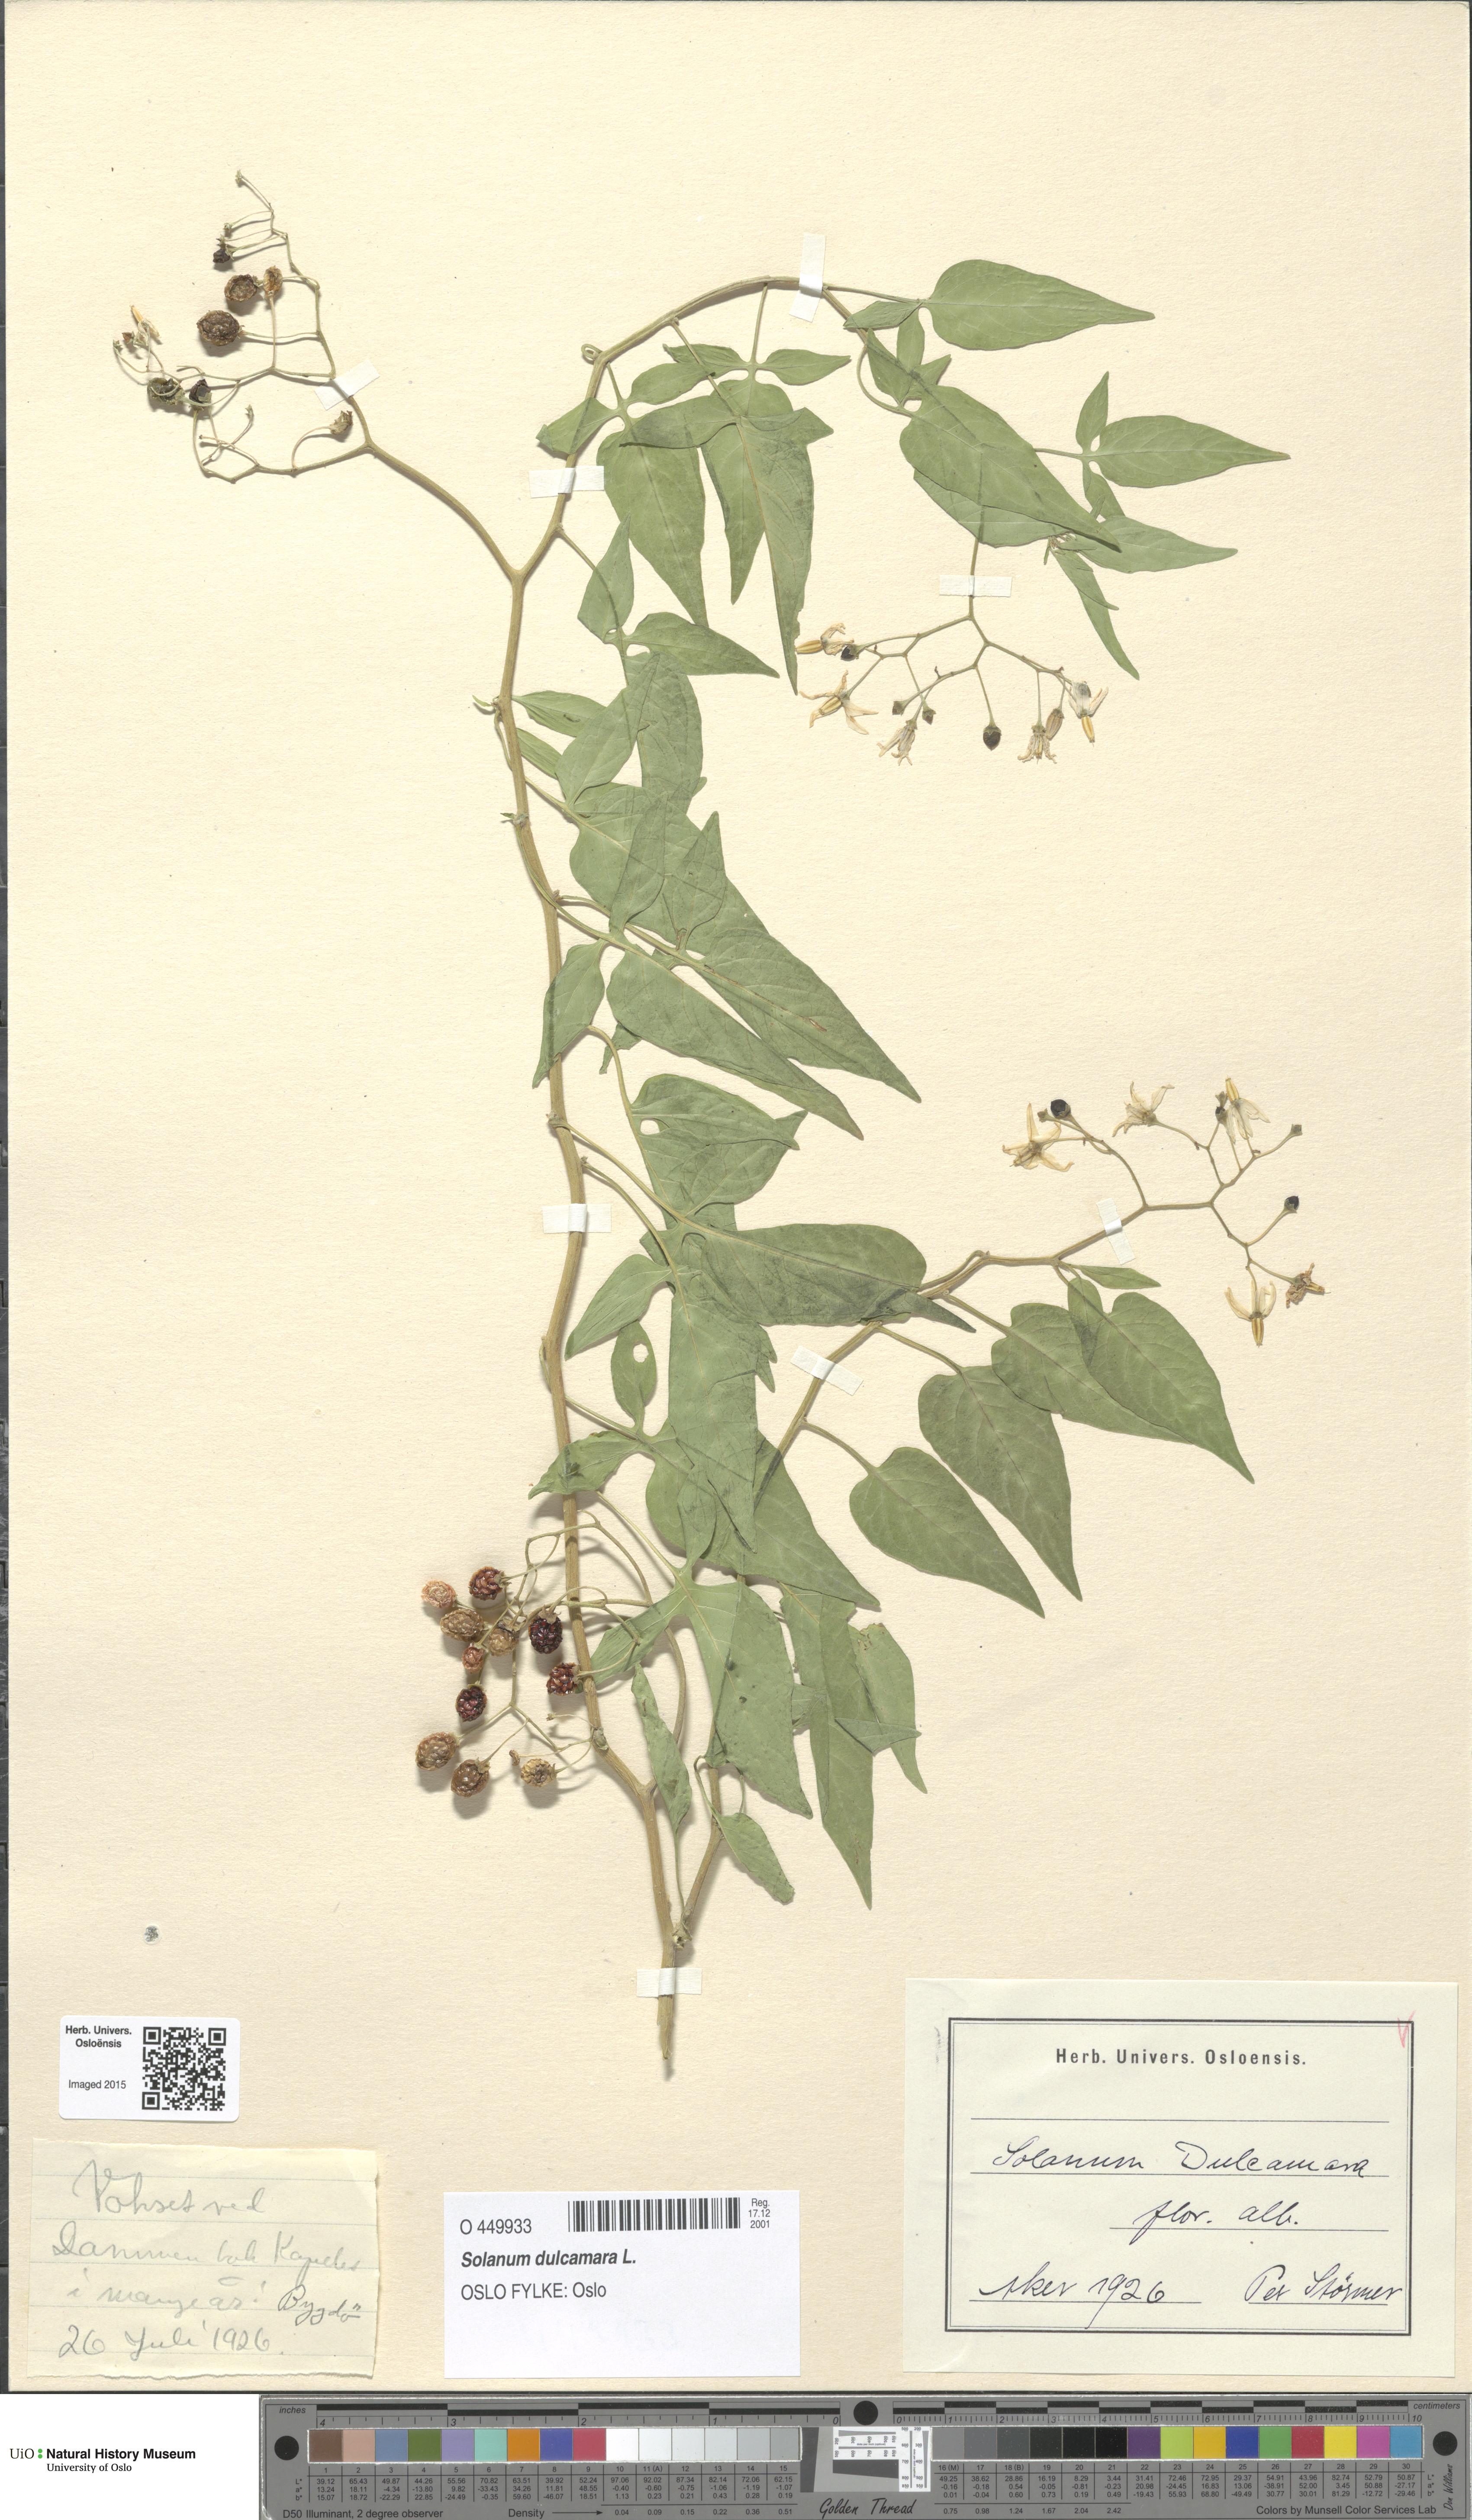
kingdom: Plantae
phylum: Tracheophyta
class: Magnoliopsida
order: Solanales
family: Solanaceae
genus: Solanum
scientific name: Solanum dulcamara
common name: Climbing nightshade
